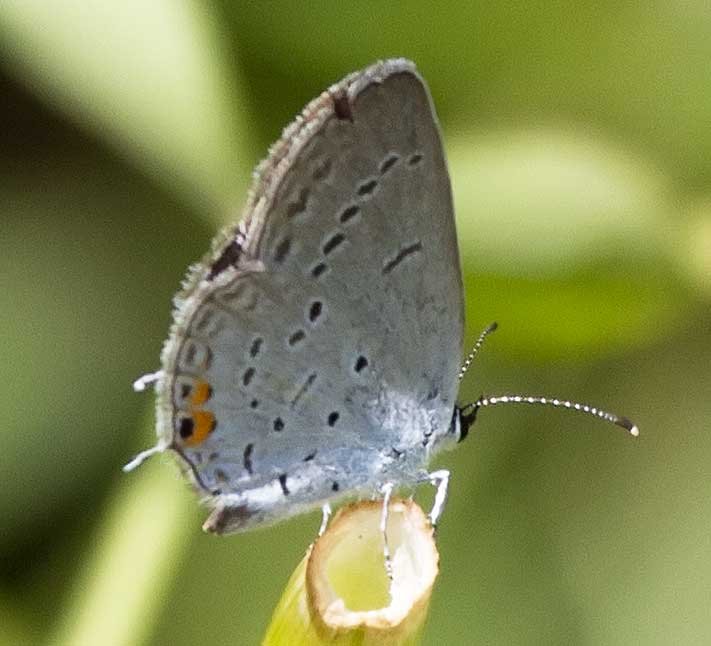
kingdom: Animalia
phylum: Arthropoda
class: Insecta
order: Lepidoptera
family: Lycaenidae
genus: Elkalyce
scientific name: Elkalyce comyntas
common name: Eastern Tailed-Blue
